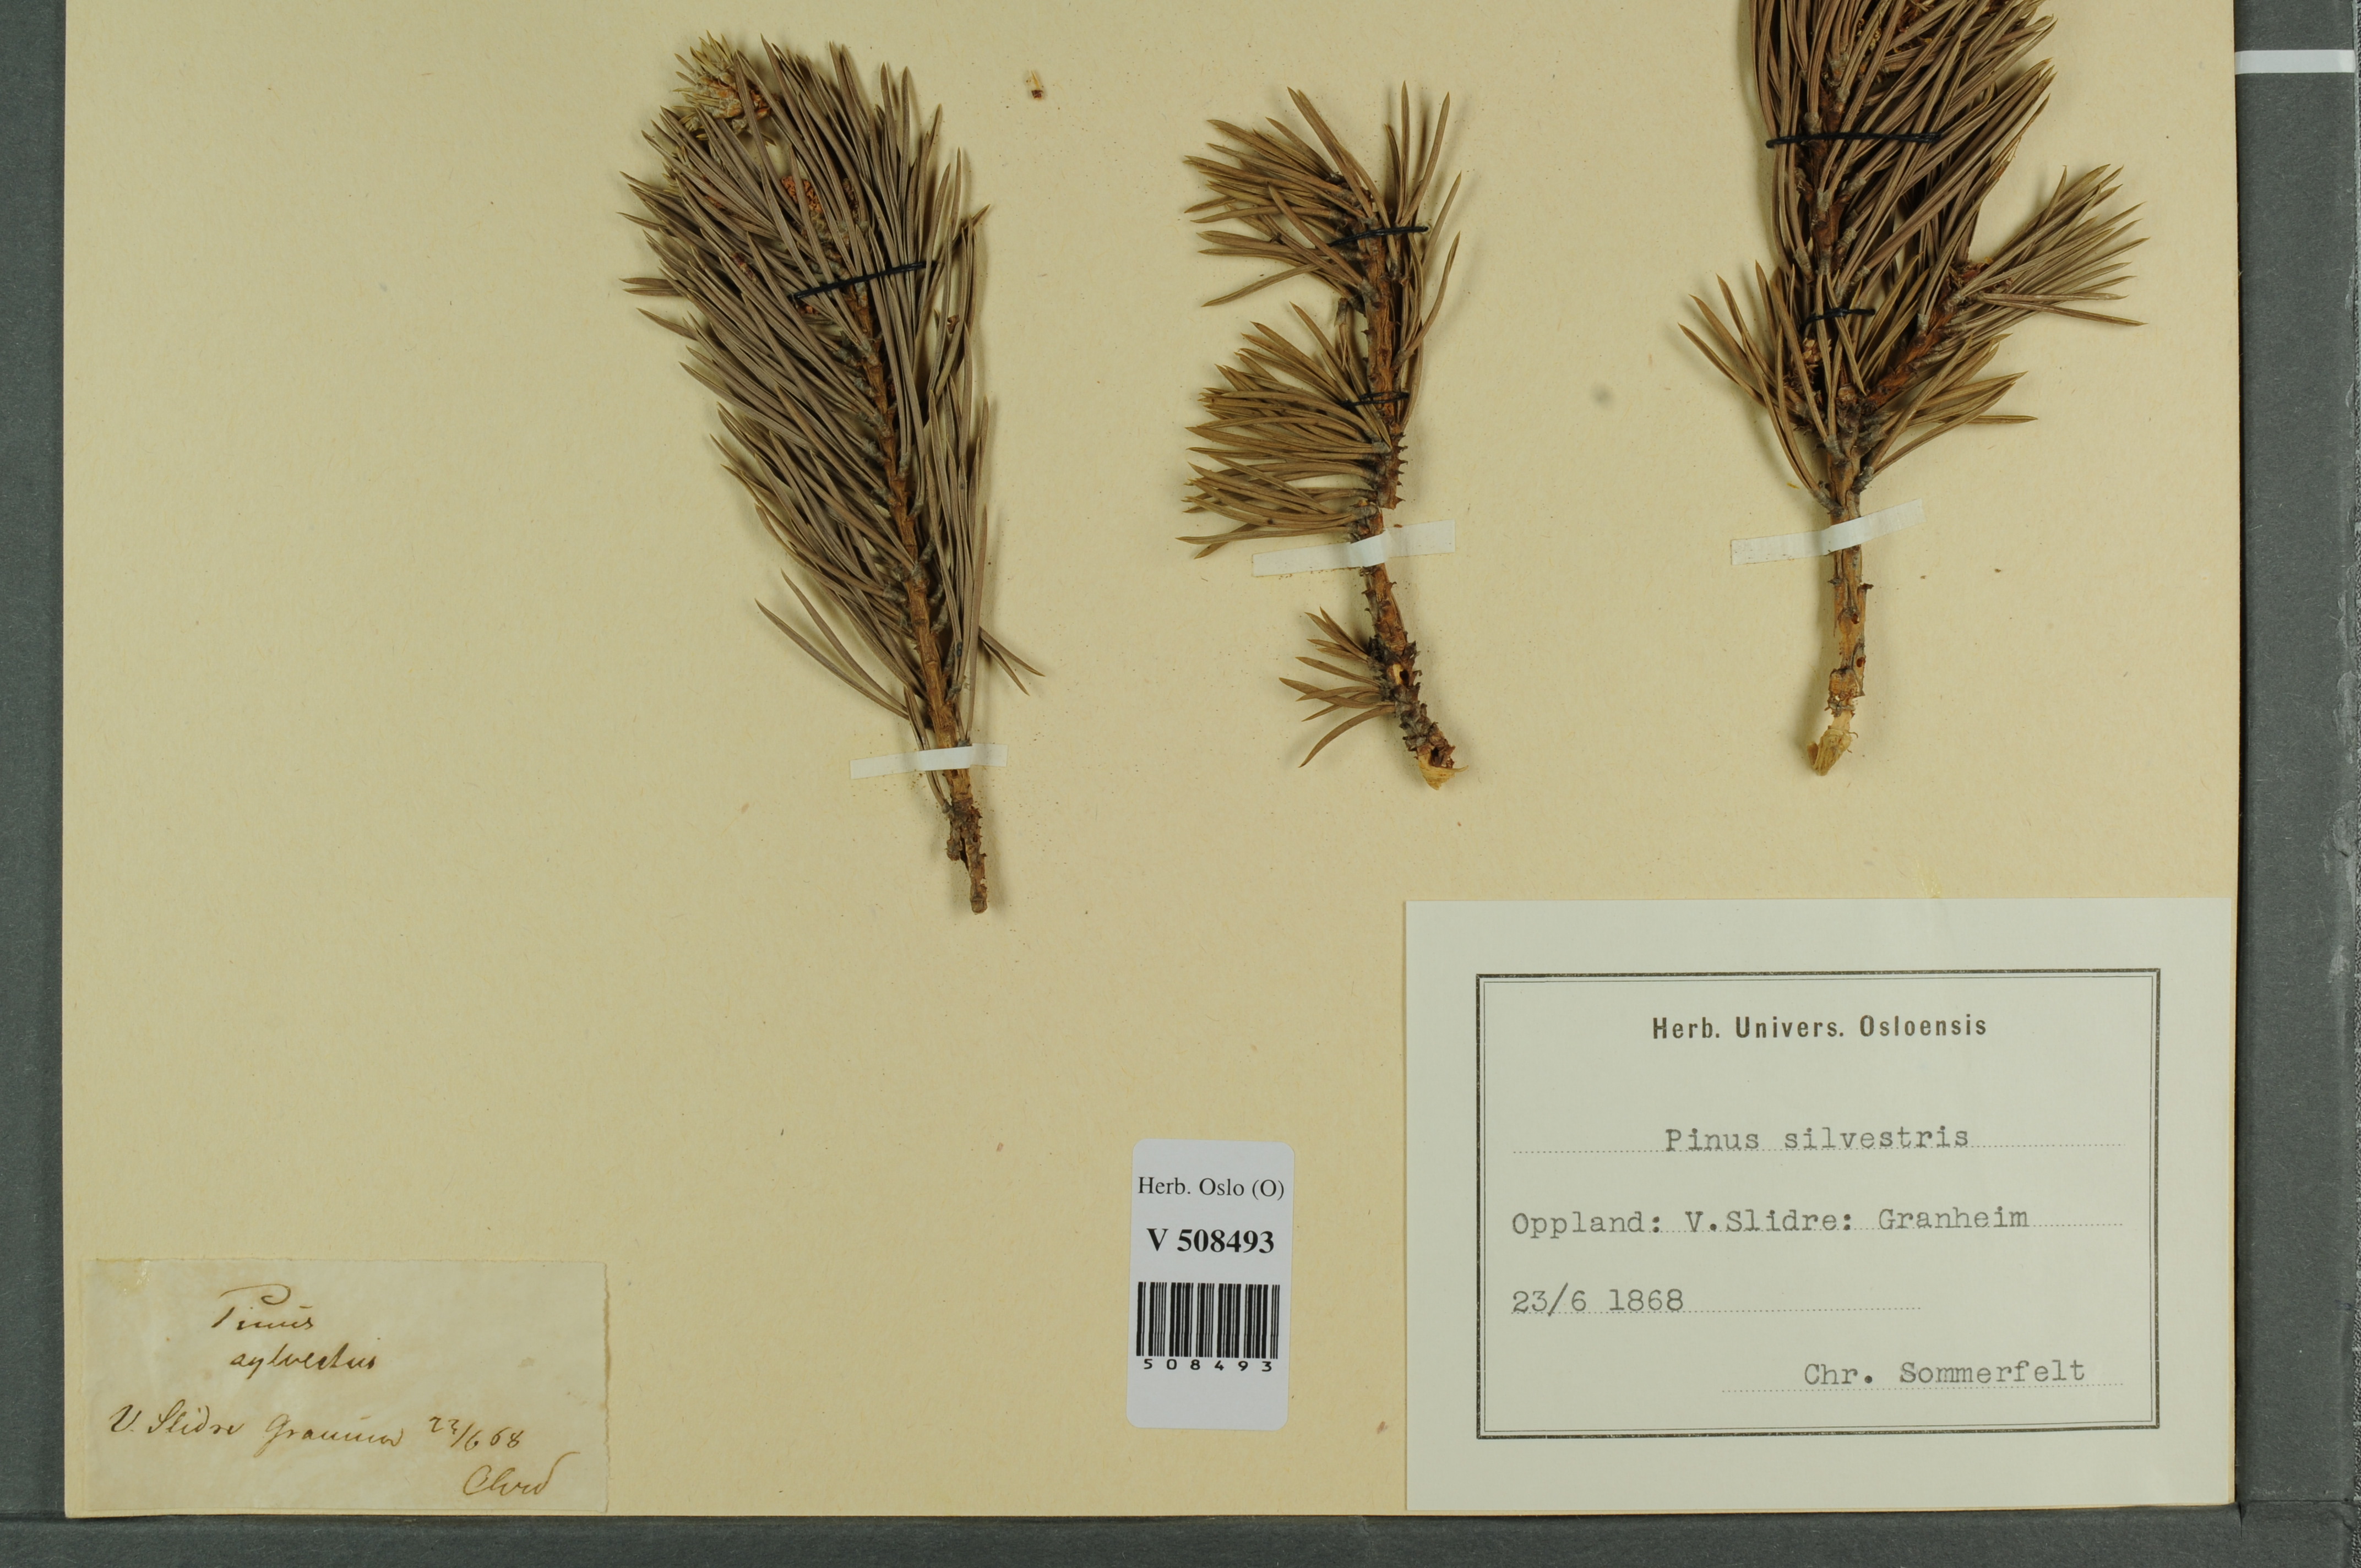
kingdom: Plantae
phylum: Tracheophyta
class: Pinopsida
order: Pinales
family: Pinaceae
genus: Pinus
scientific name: Pinus sylvestris
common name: Scots pine
